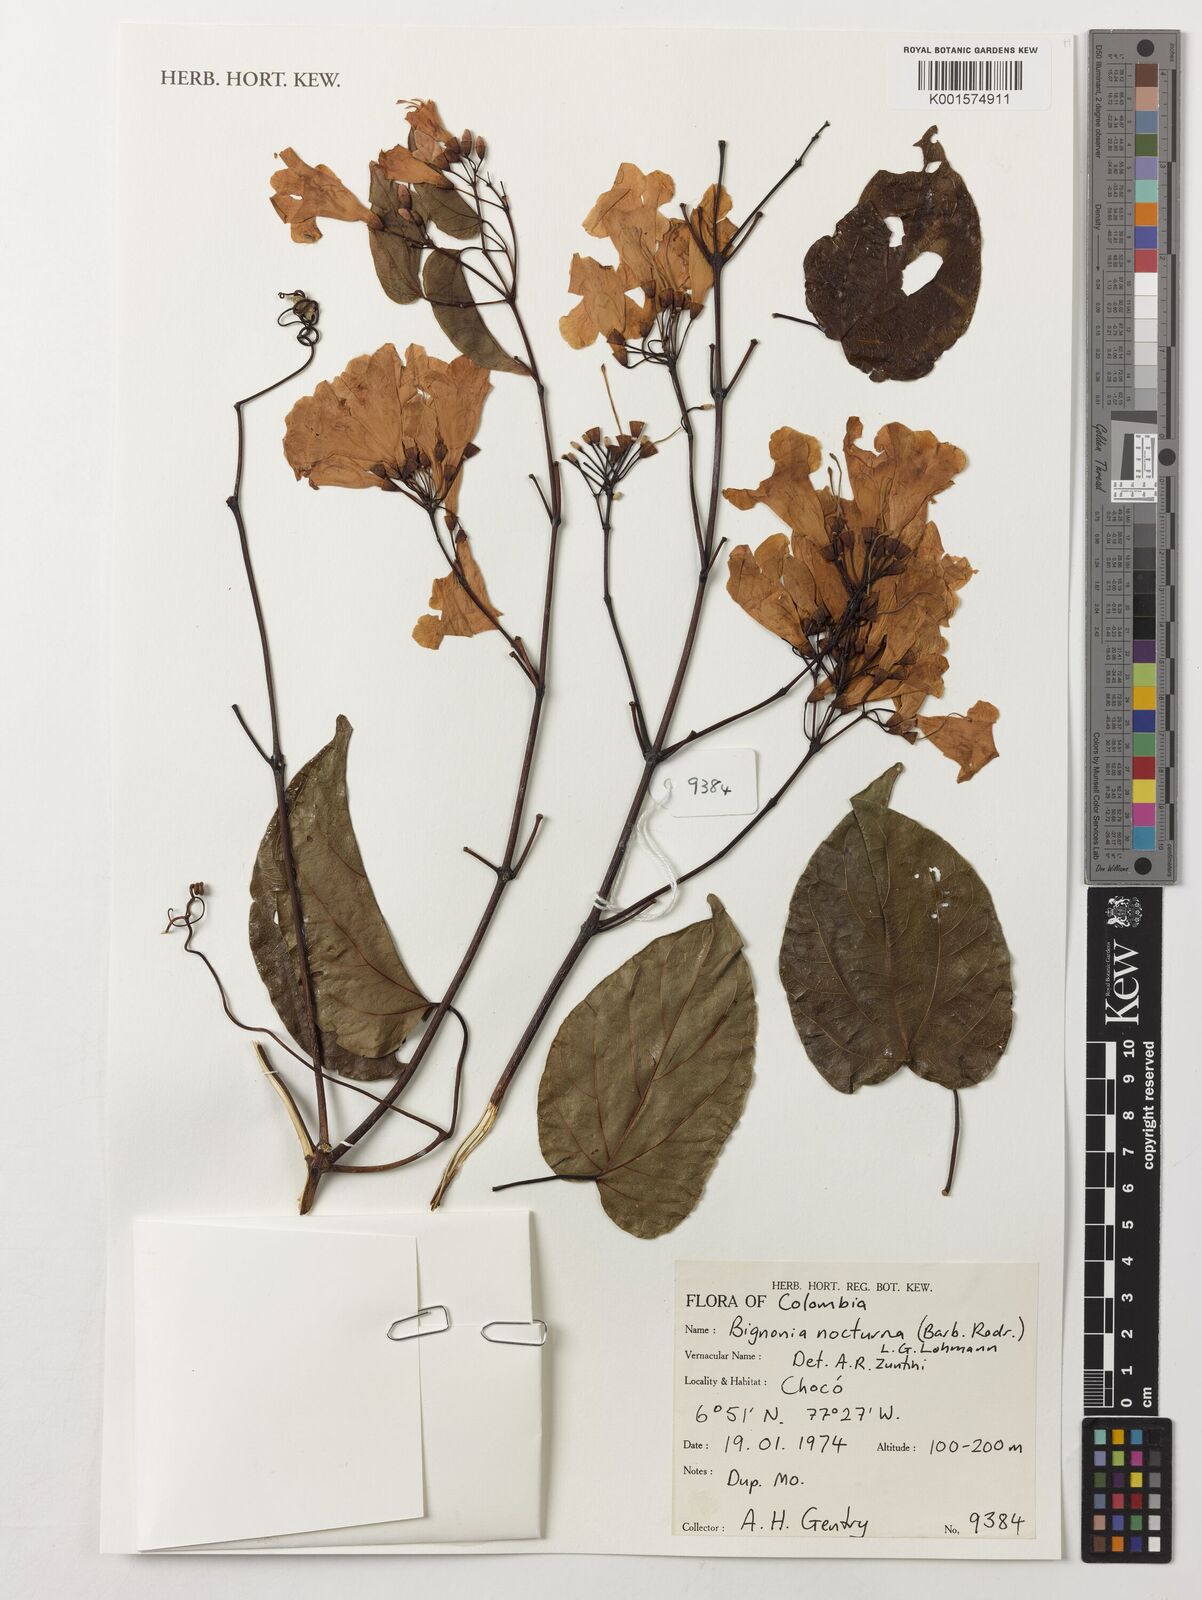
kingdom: Plantae
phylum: Tracheophyta
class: Magnoliopsida
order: Lamiales
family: Bignoniaceae
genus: Bignonia
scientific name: Bignonia nocturna
